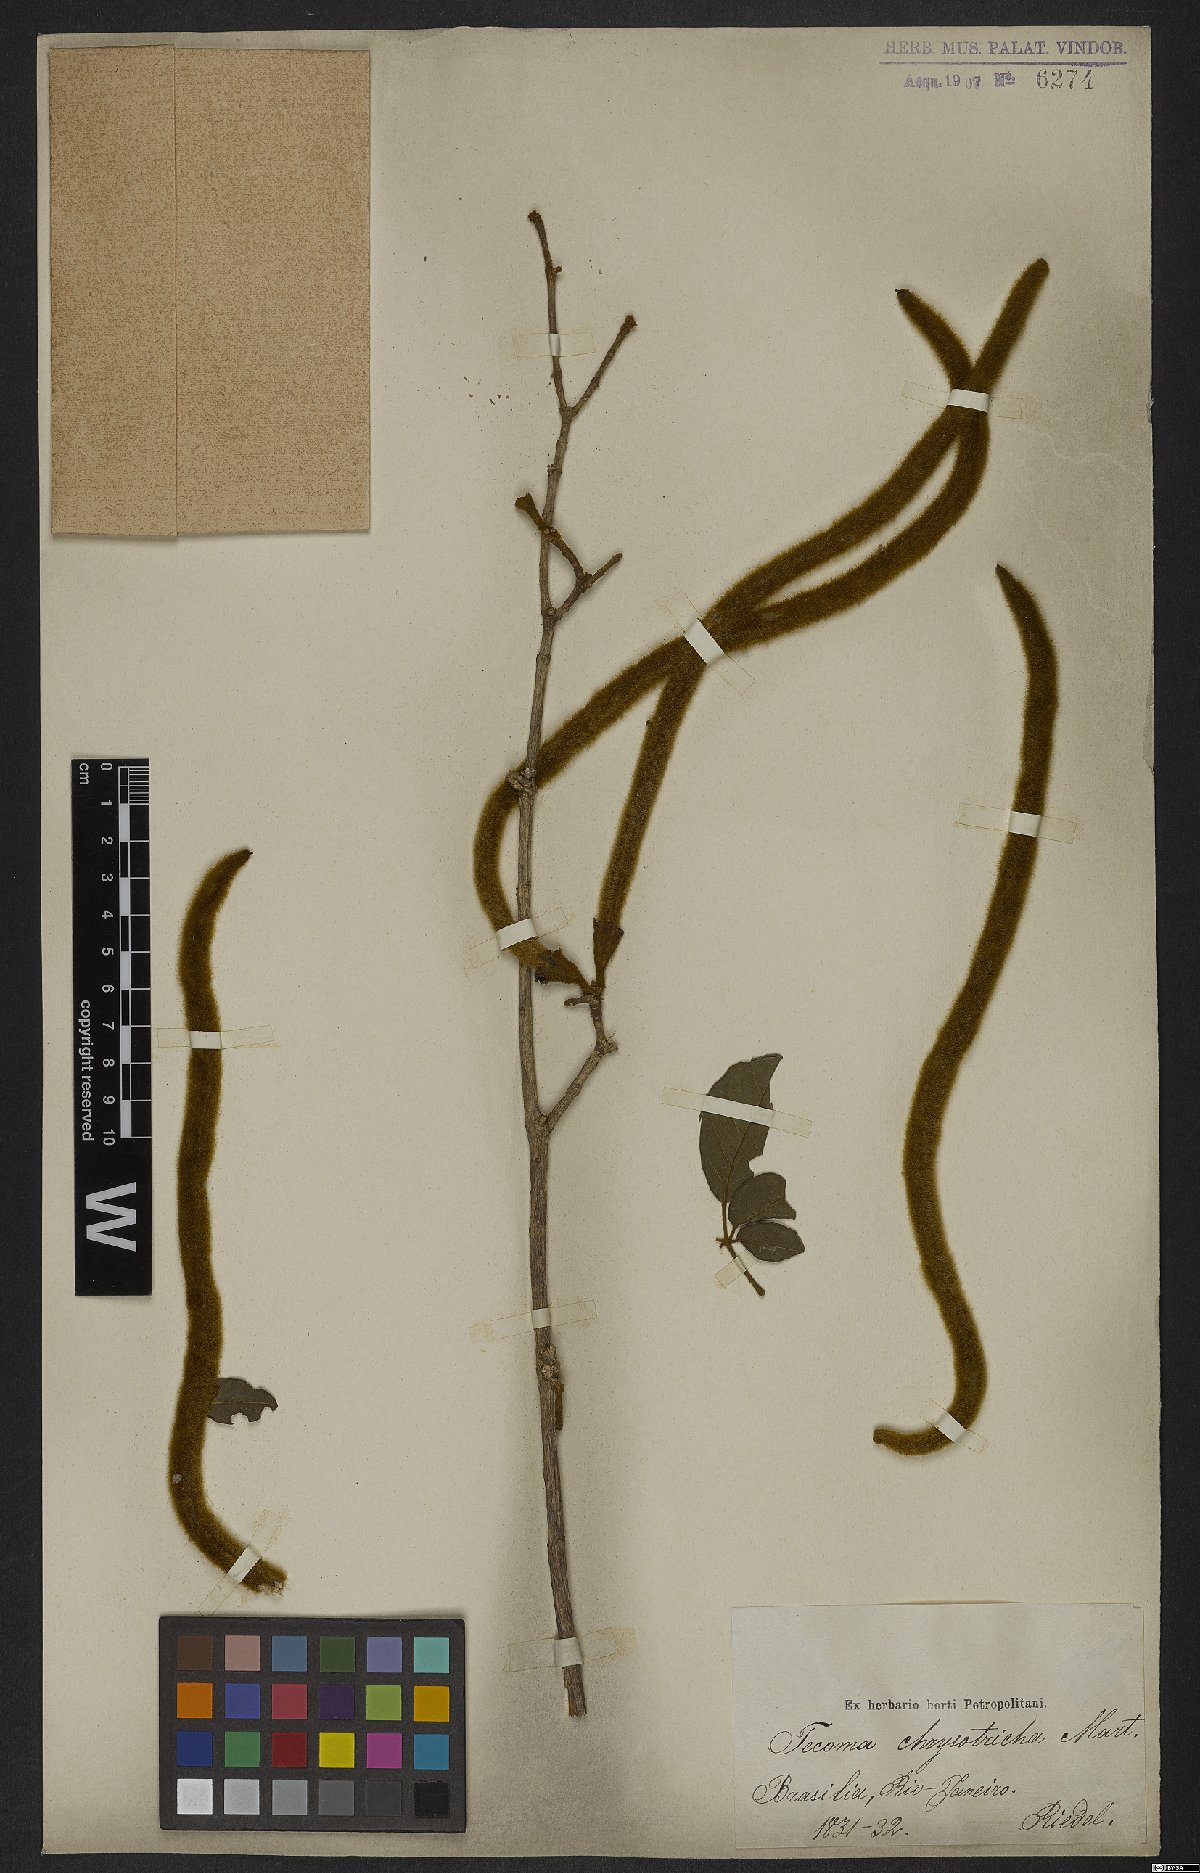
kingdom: Plantae
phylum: Tracheophyta
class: Magnoliopsida
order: Lamiales
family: Bignoniaceae
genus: Handroanthus
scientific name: Handroanthus chrysotrichus
